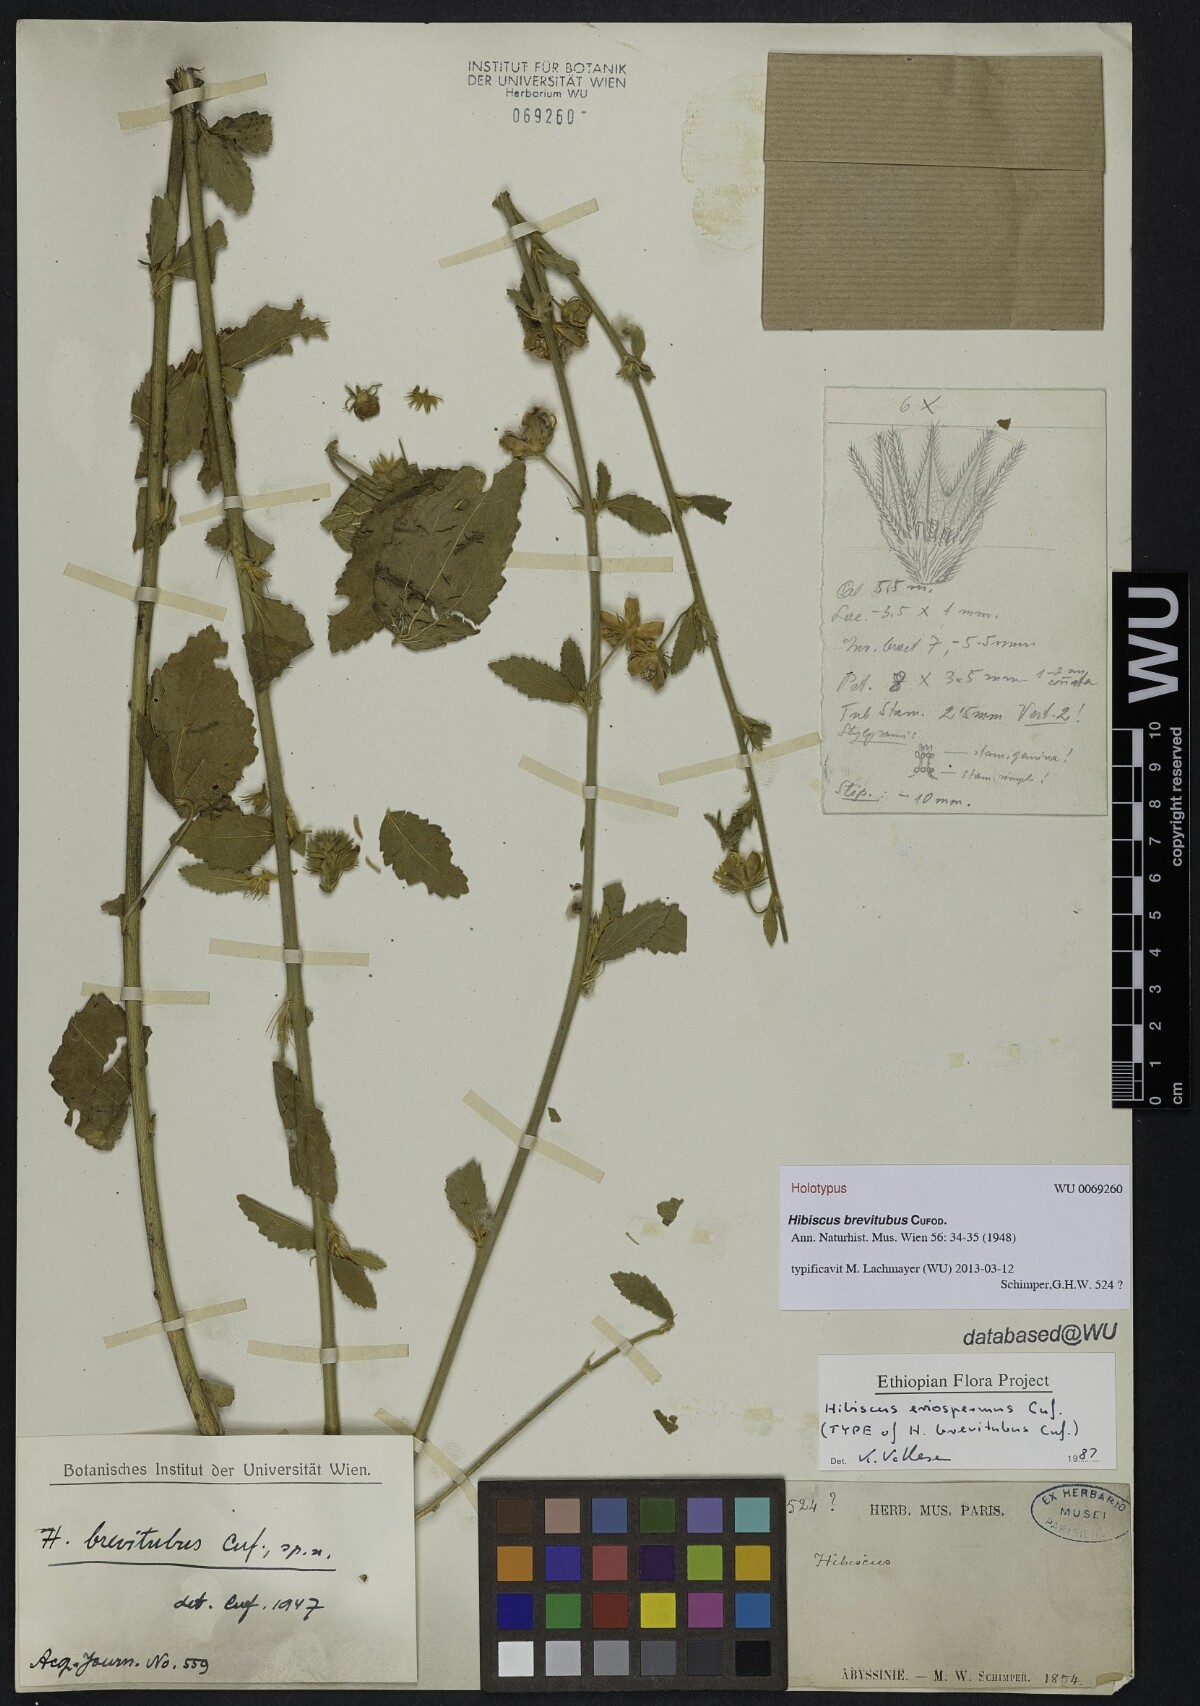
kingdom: Plantae
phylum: Tracheophyta
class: Magnoliopsida
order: Malvales
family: Malvaceae
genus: Hibiscus
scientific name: Hibiscus eriospermus
